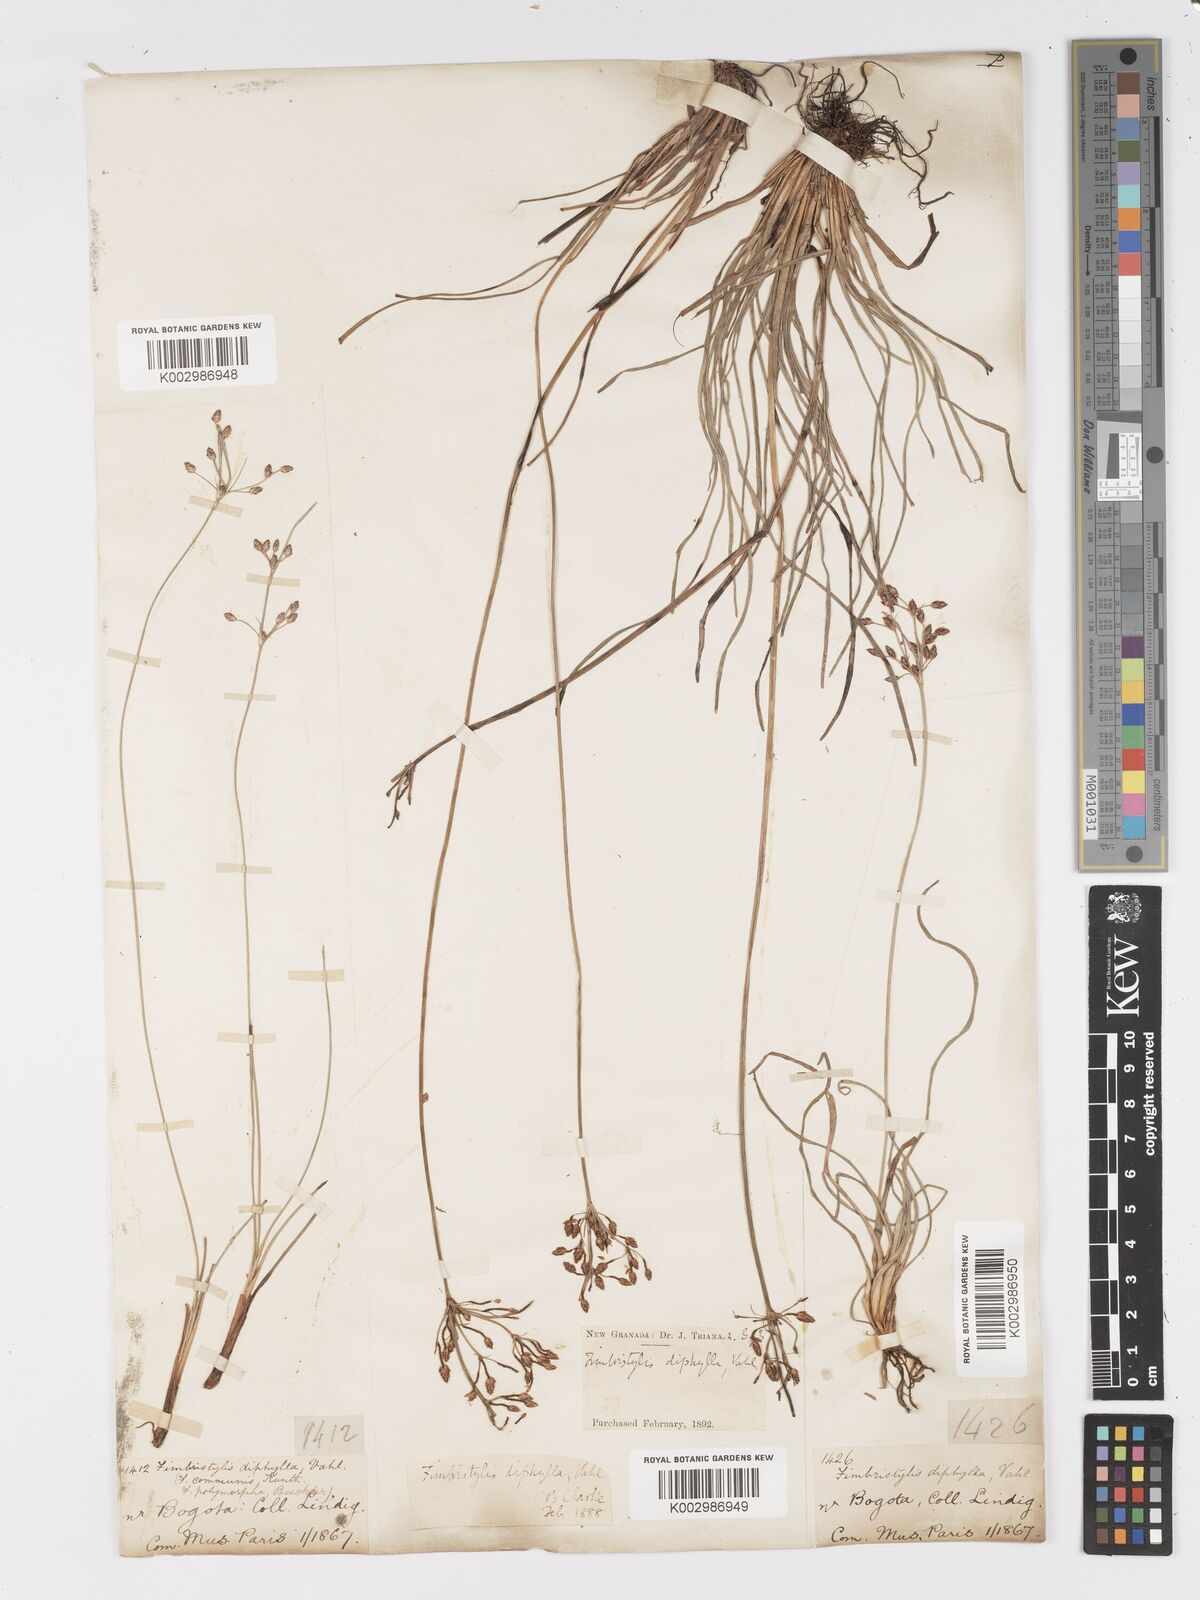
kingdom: Plantae
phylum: Tracheophyta
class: Liliopsida
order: Poales
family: Cyperaceae
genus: Fimbristylis
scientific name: Fimbristylis dichotoma
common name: Forked fimbry
